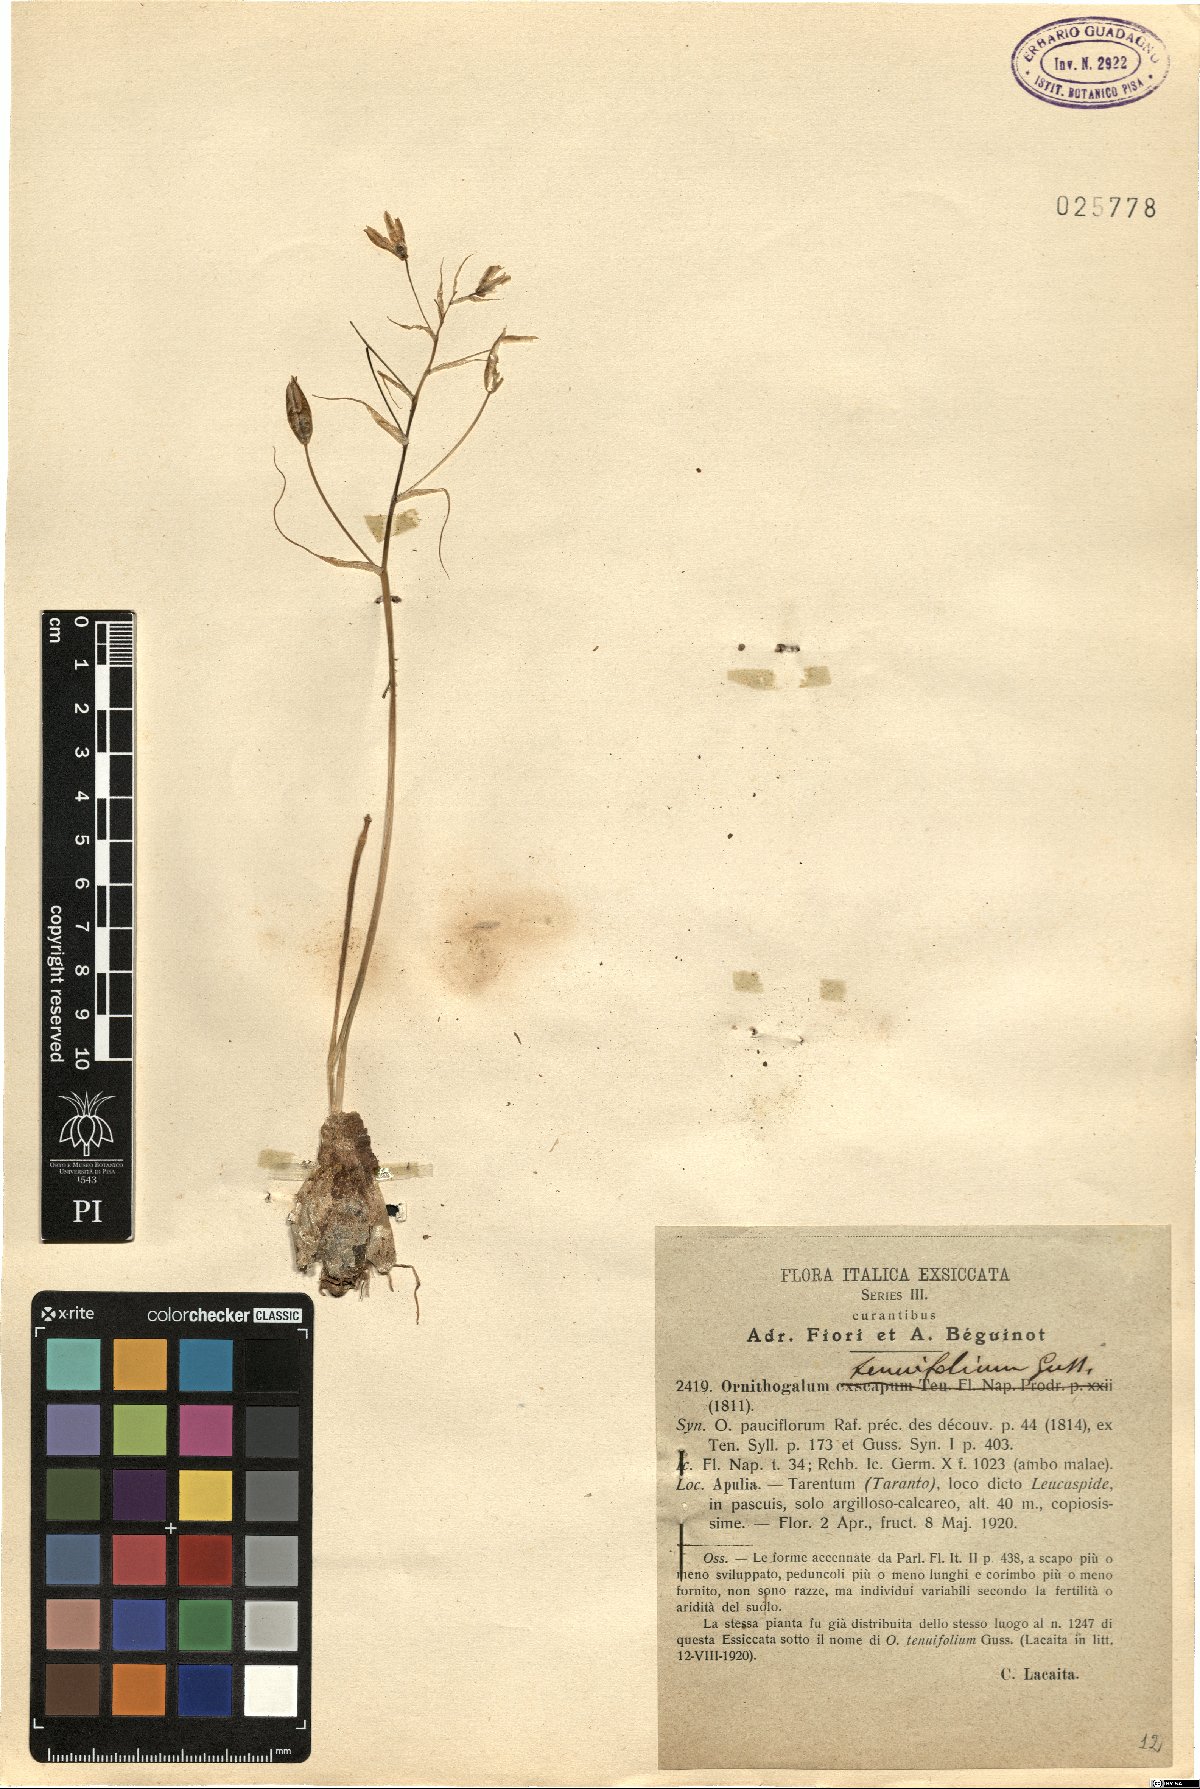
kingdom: Plantae
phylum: Tracheophyta
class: Liliopsida
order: Asparagales
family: Asparagaceae
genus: Ornithogalum
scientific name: Ornithogalum gussonei
